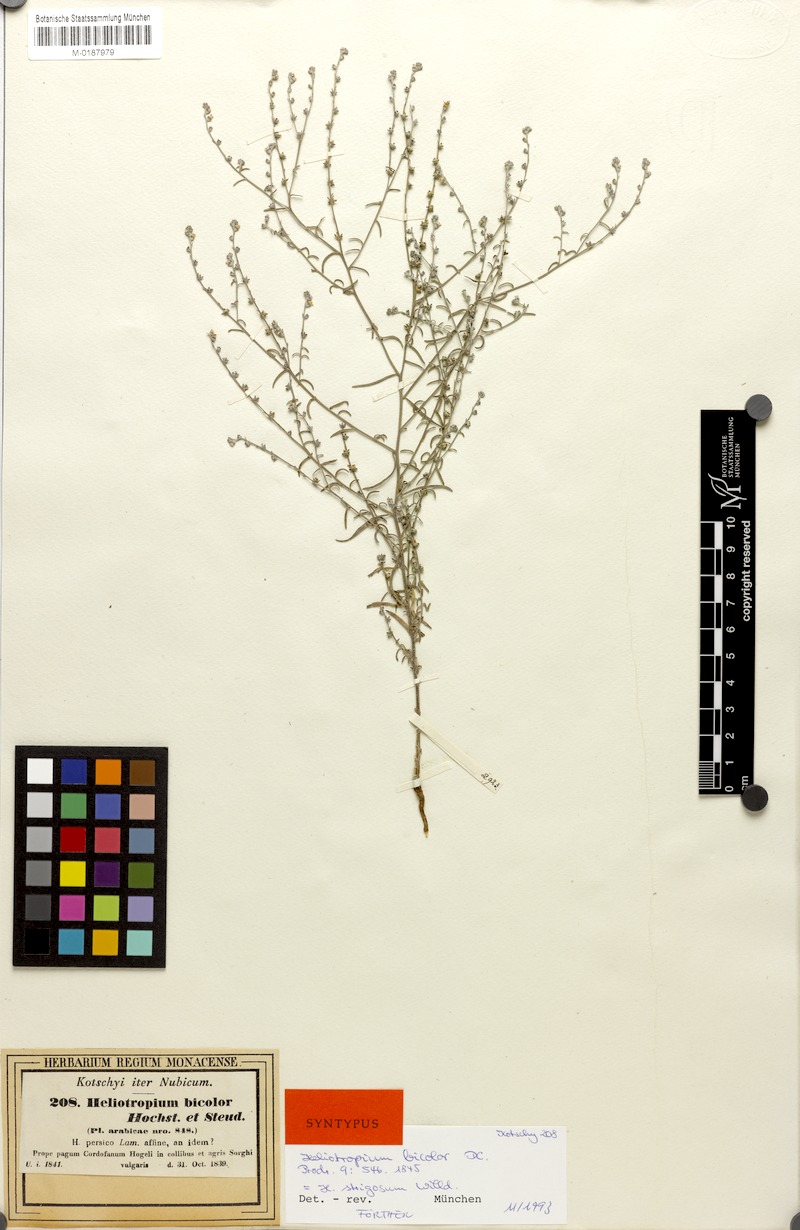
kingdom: Plantae
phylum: Tracheophyta
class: Magnoliopsida
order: Boraginales
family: Heliotropiaceae
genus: Euploca
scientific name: Euploca strigosa
